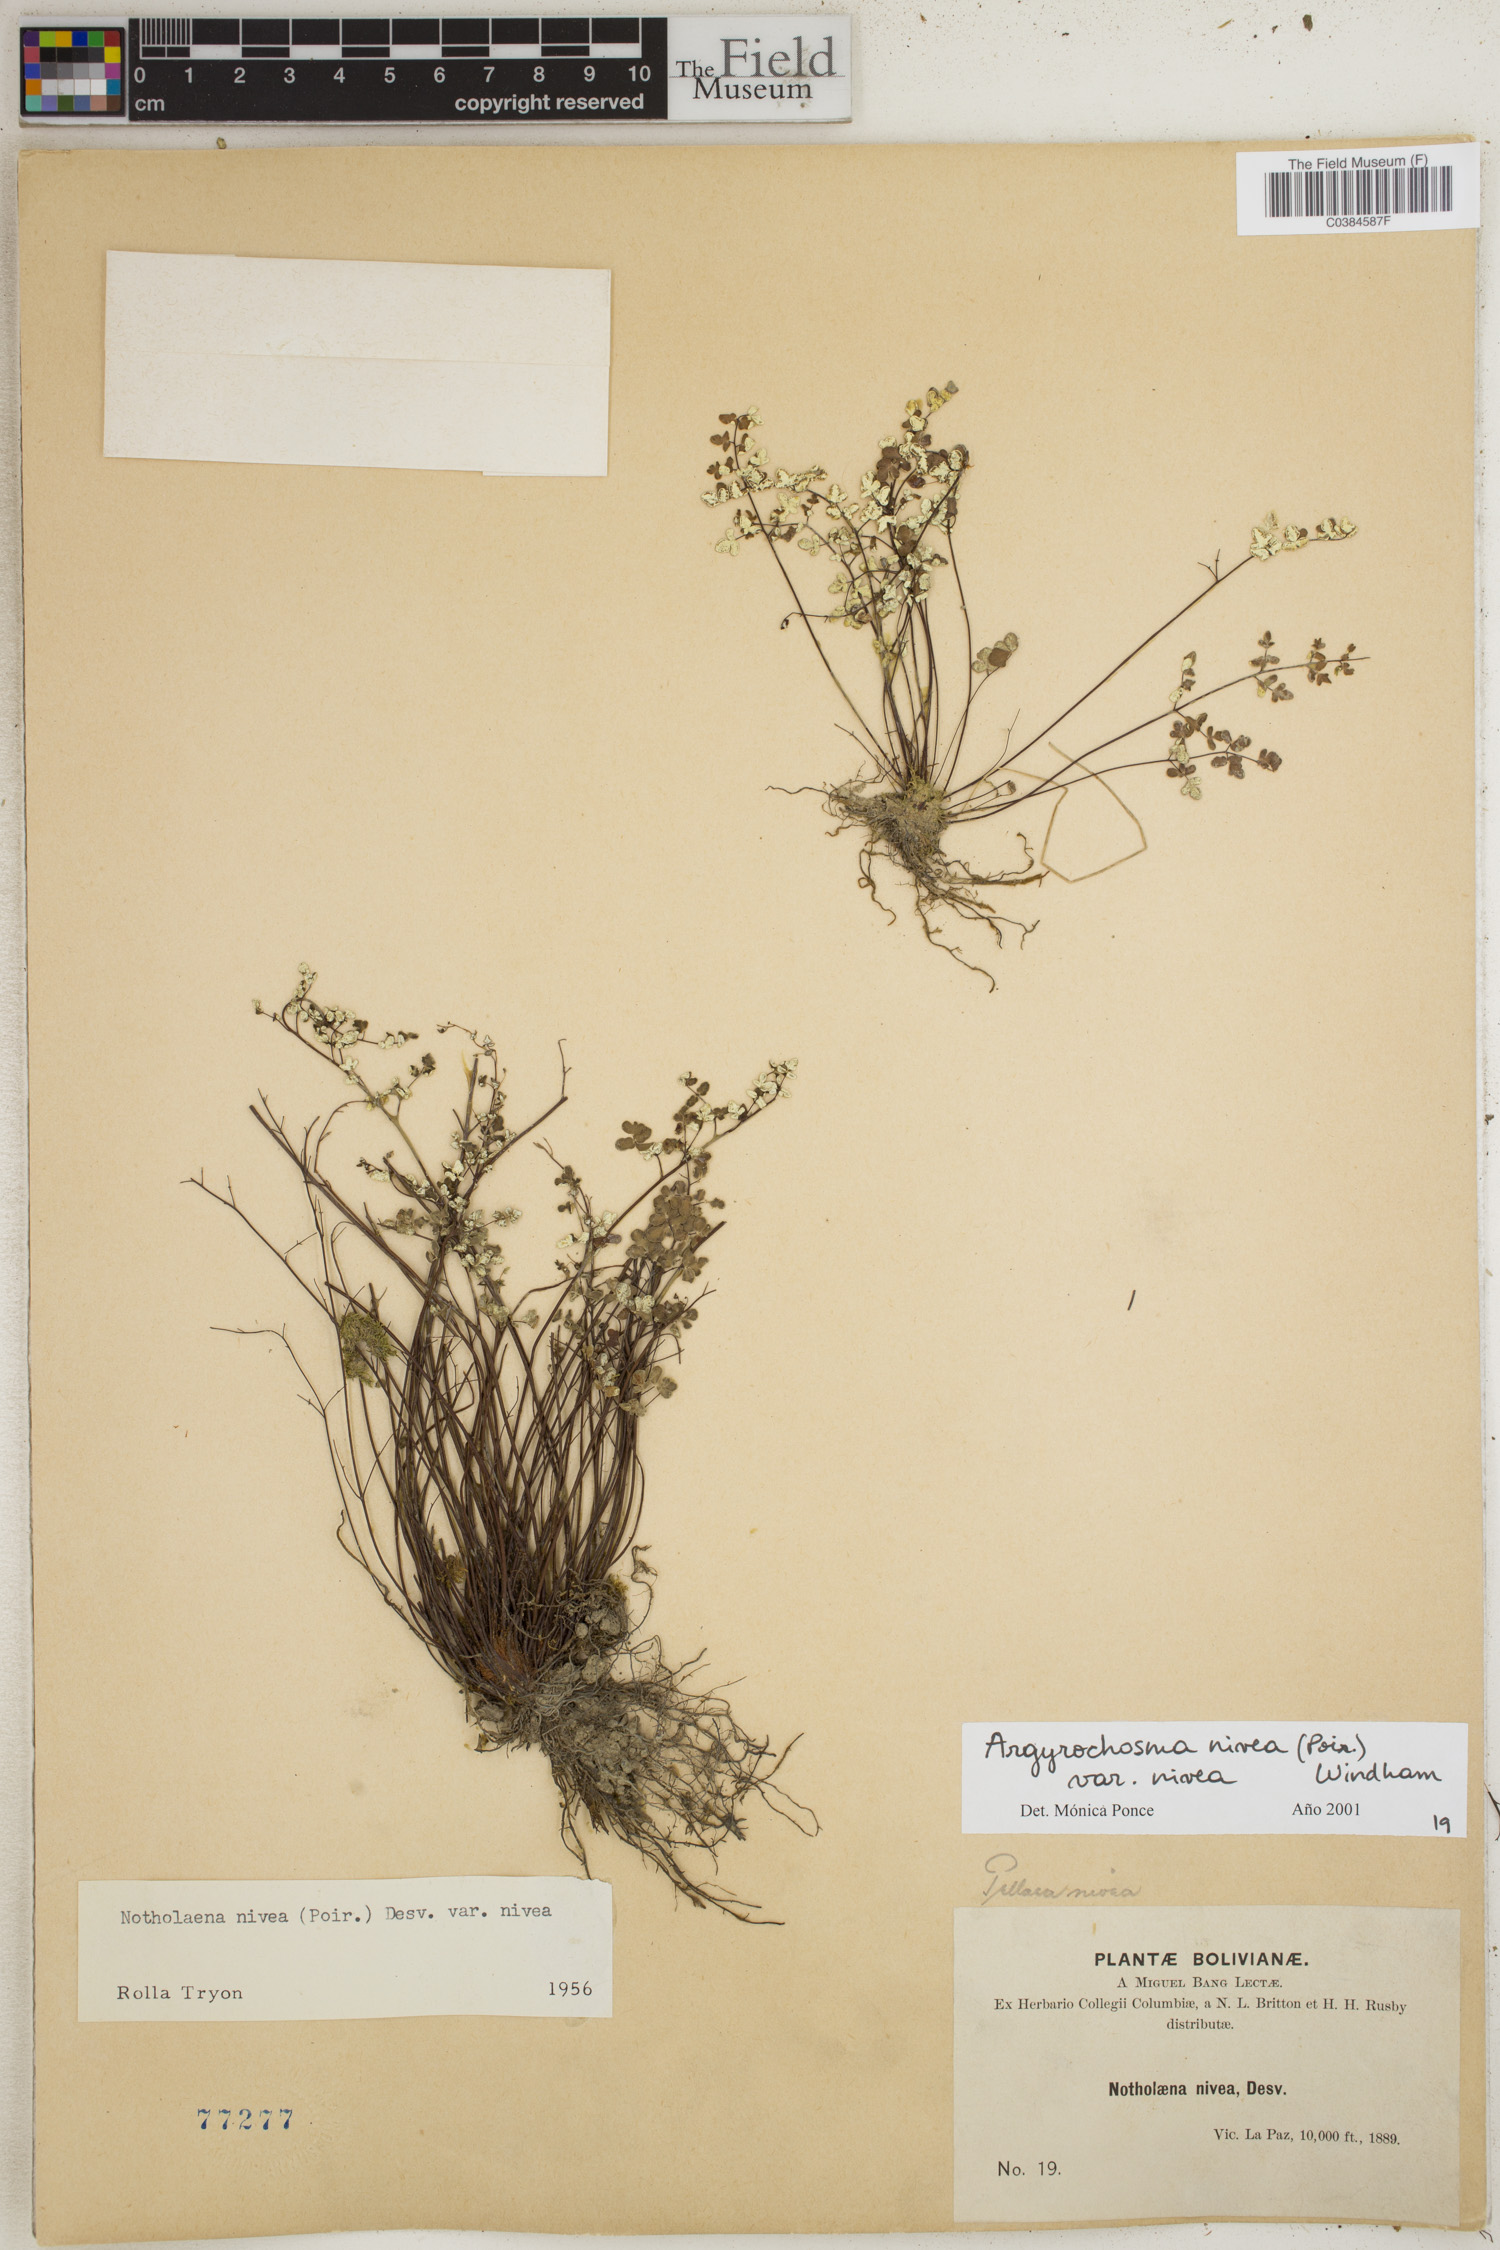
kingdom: Plantae
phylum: Tracheophyta
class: Polypodiopsida
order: Polypodiales
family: Pteridaceae
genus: Argyrochosma
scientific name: Argyrochosma nivea
